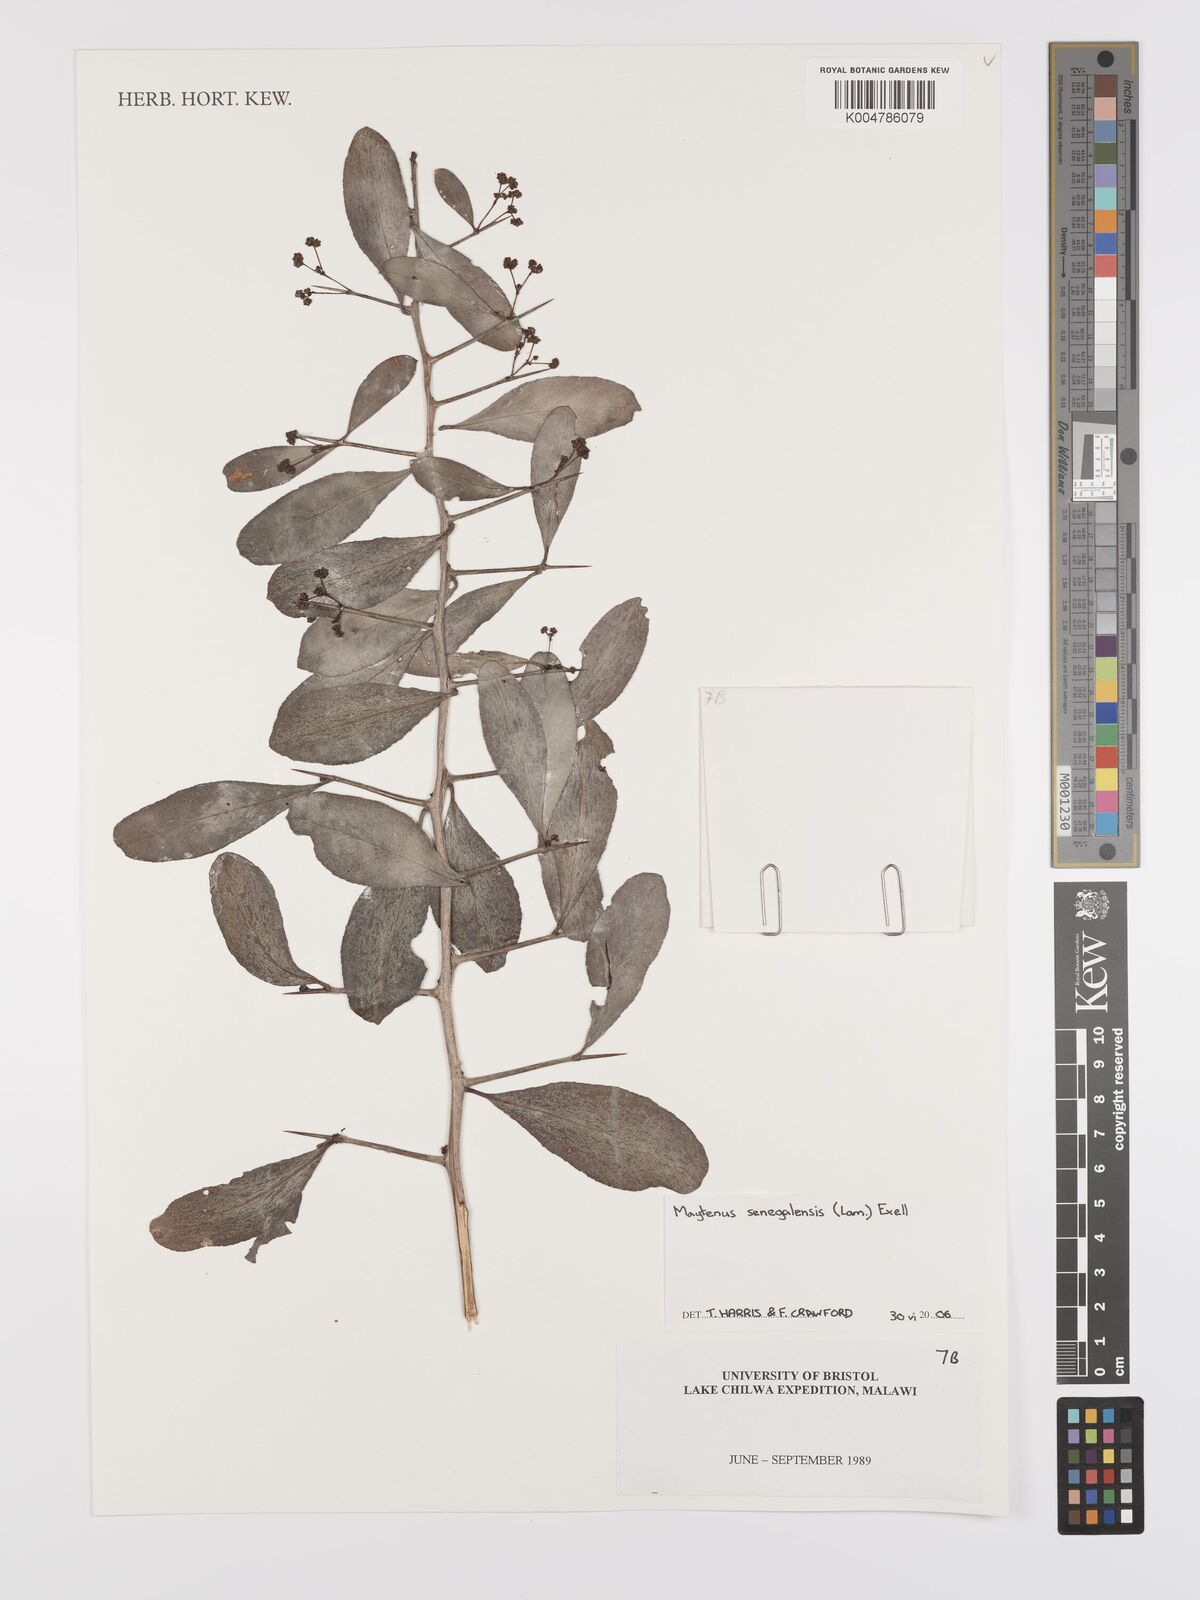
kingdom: Plantae
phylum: Tracheophyta
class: Magnoliopsida
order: Celastrales
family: Celastraceae
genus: Gymnosporia
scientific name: Gymnosporia senegalensis
